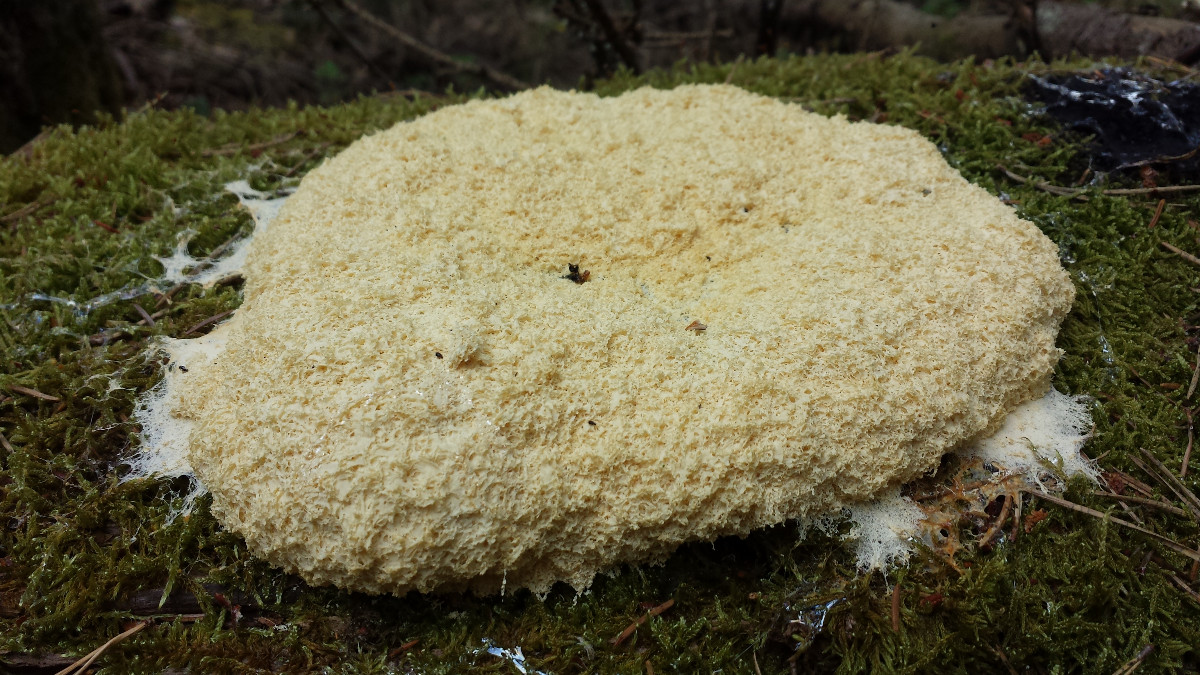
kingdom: Protozoa
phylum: Mycetozoa
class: Myxomycetes
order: Physarales
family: Physaraceae
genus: Fuligo
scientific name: Fuligo
